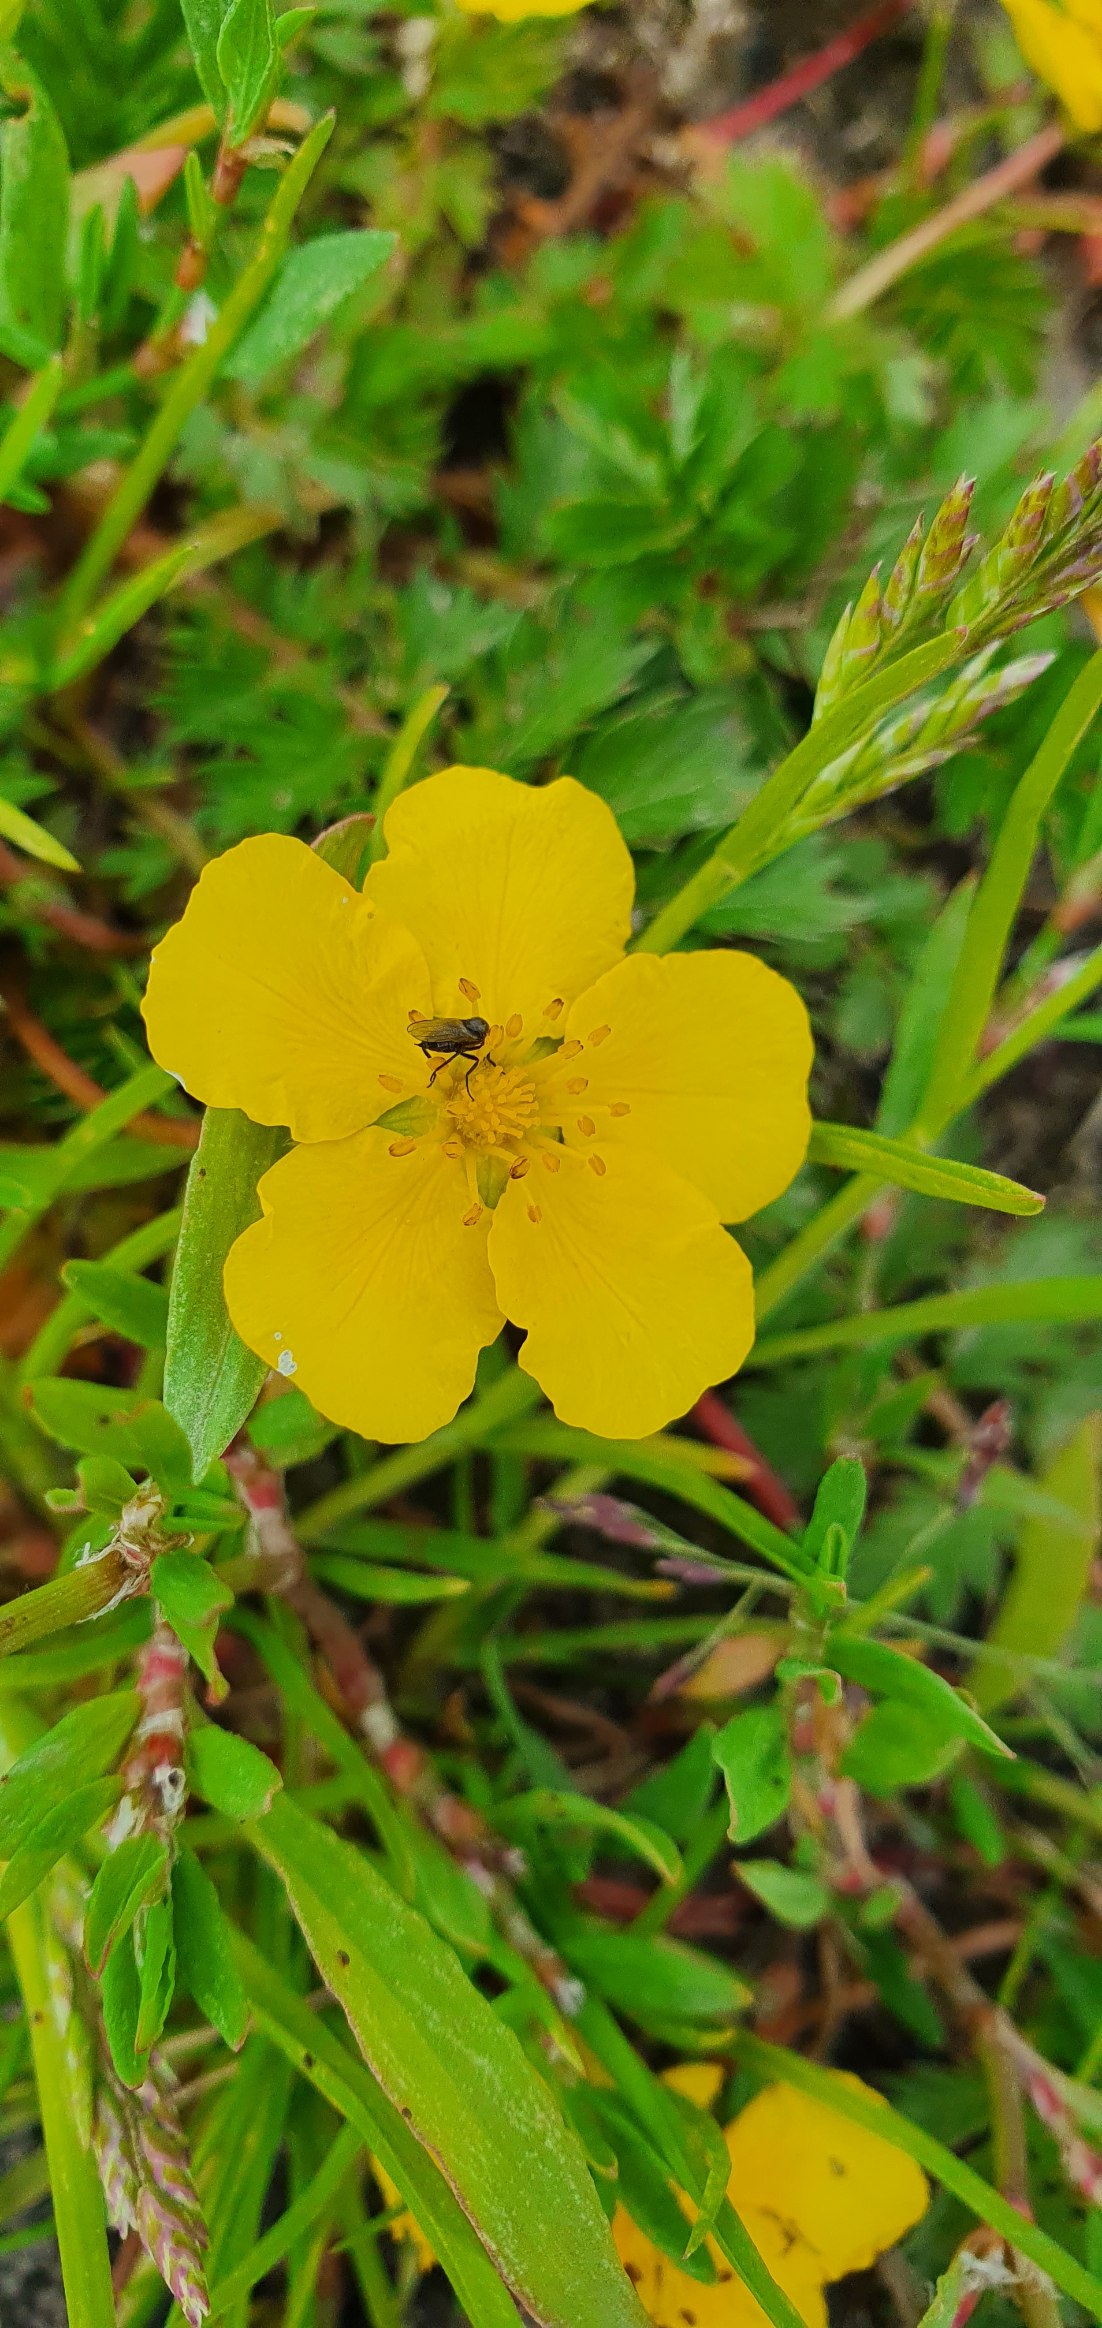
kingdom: Plantae
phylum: Tracheophyta
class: Magnoliopsida
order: Rosales
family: Rosaceae
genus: Argentina
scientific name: Argentina anserina
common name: Gåsepotentil
